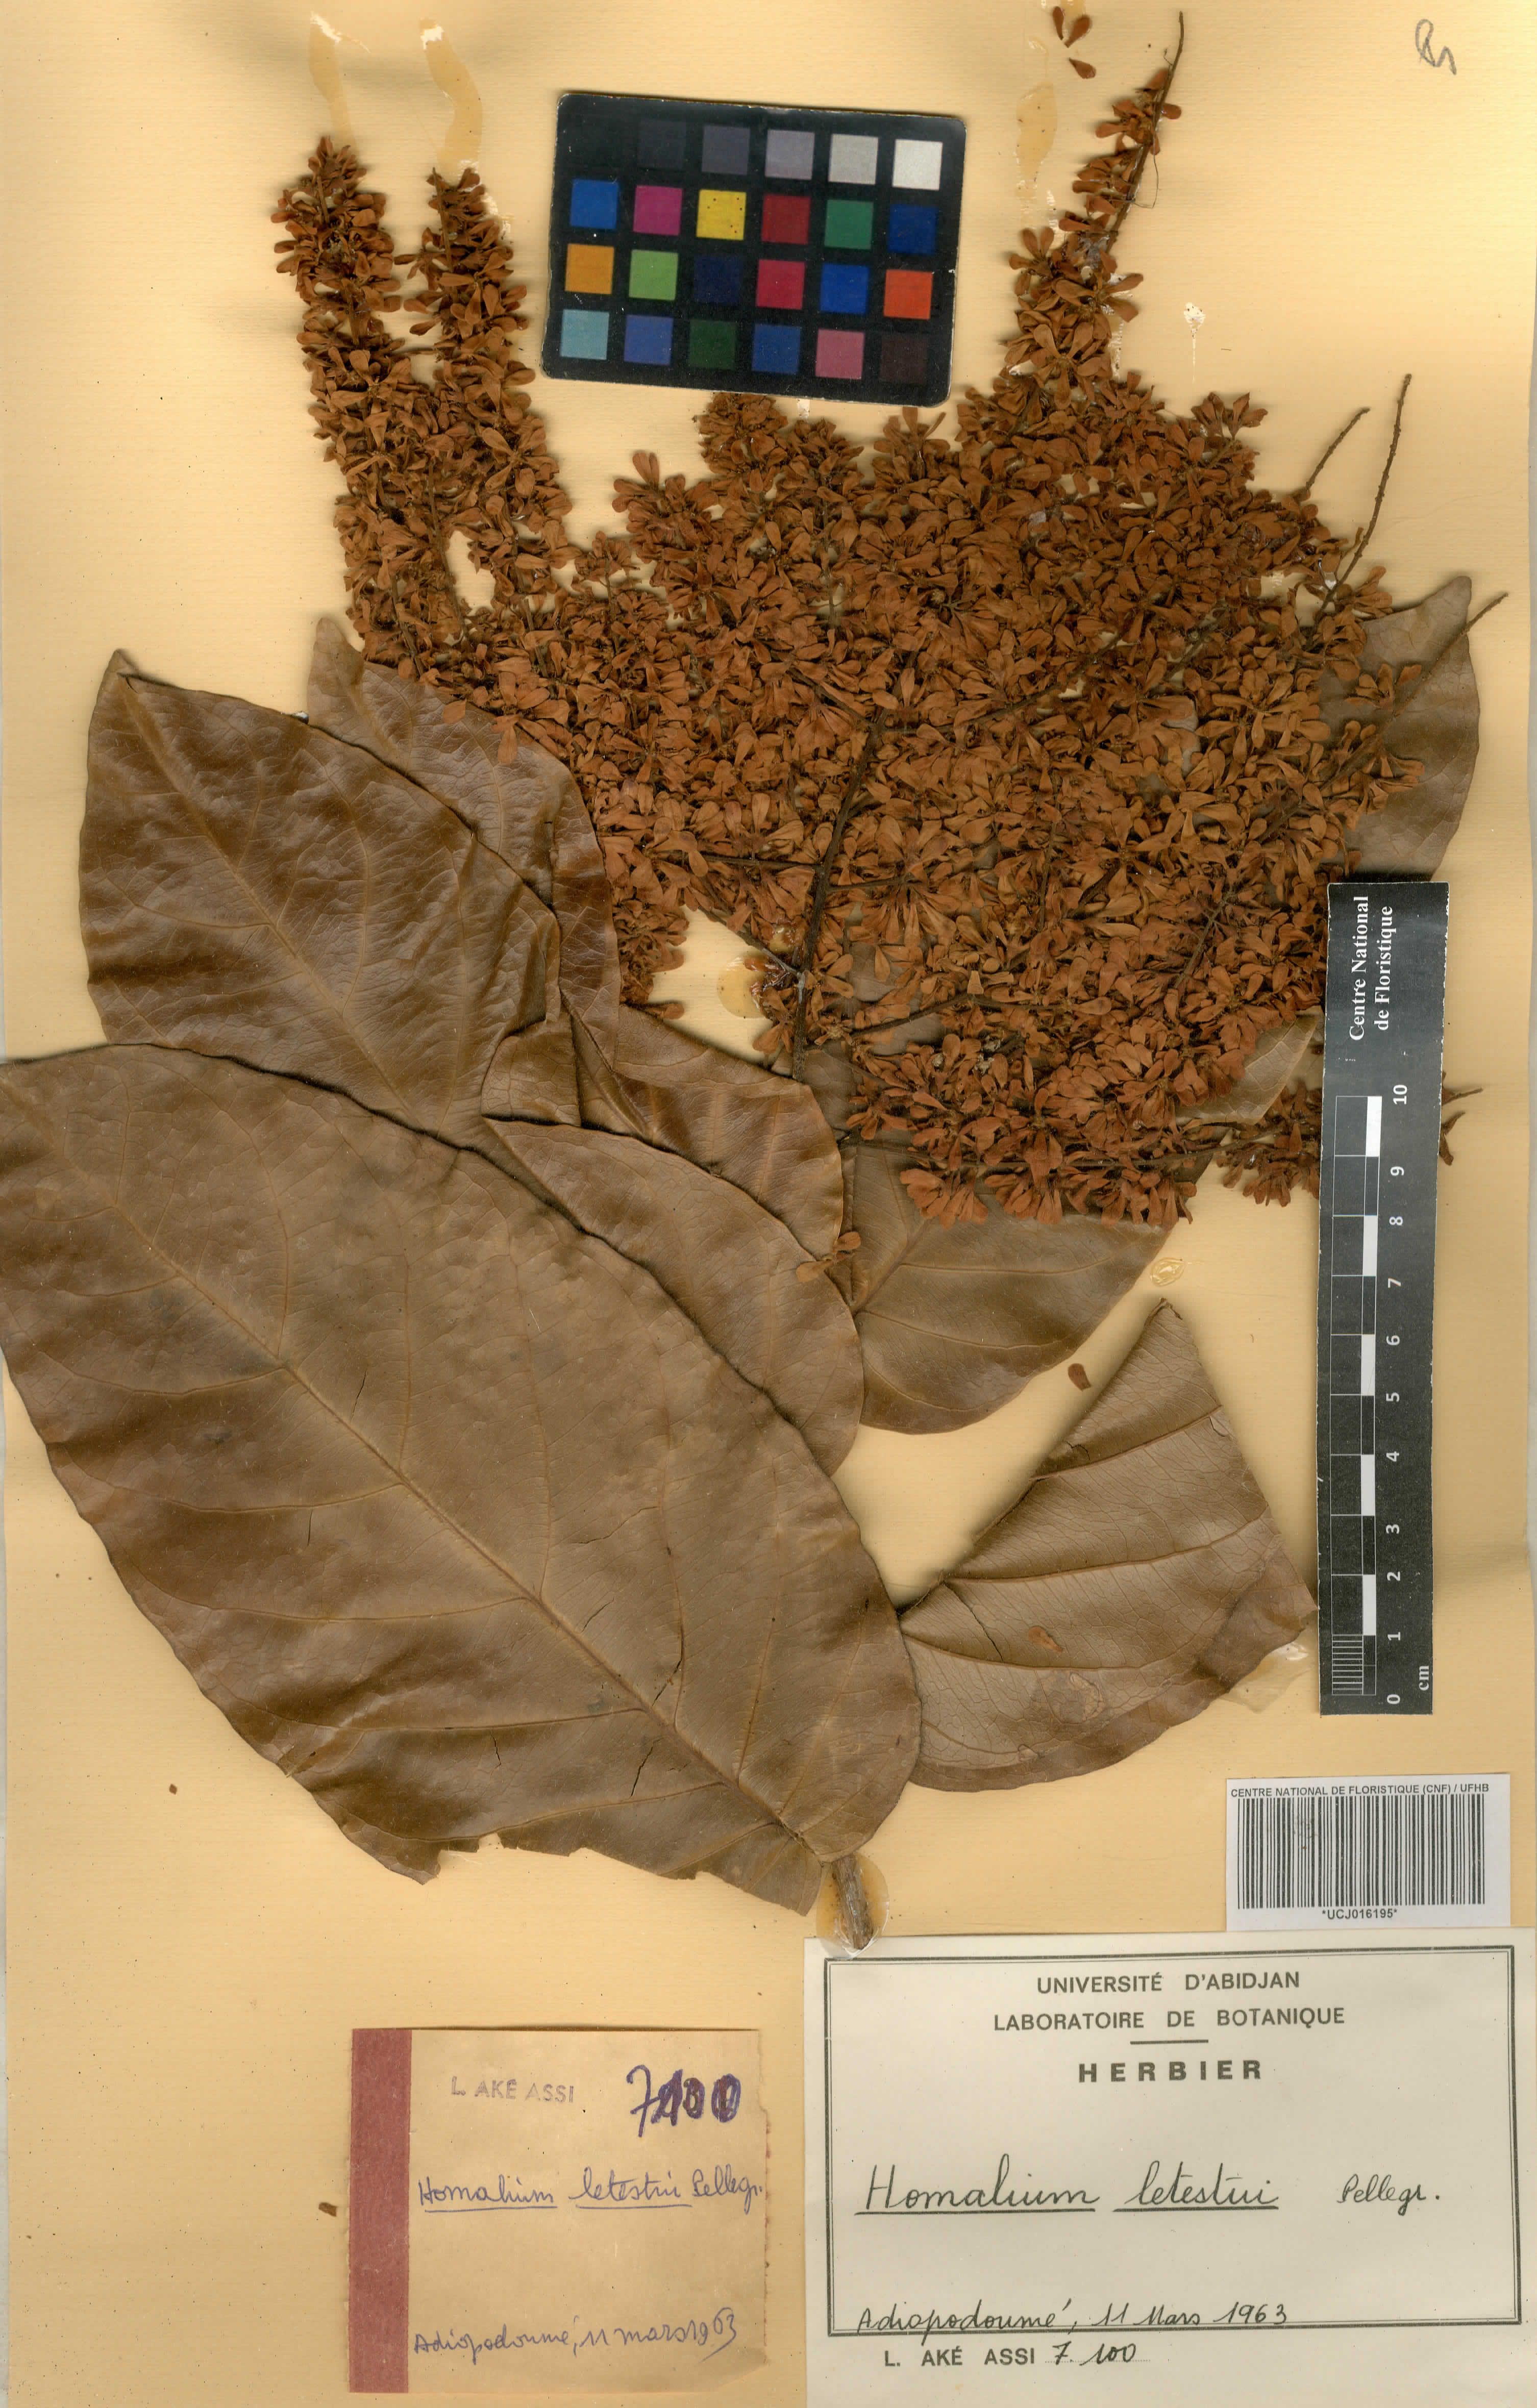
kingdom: Plantae
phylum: Tracheophyta
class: Magnoliopsida
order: Malpighiales
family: Salicaceae
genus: Homalium
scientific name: Homalium letestui
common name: African homalium
